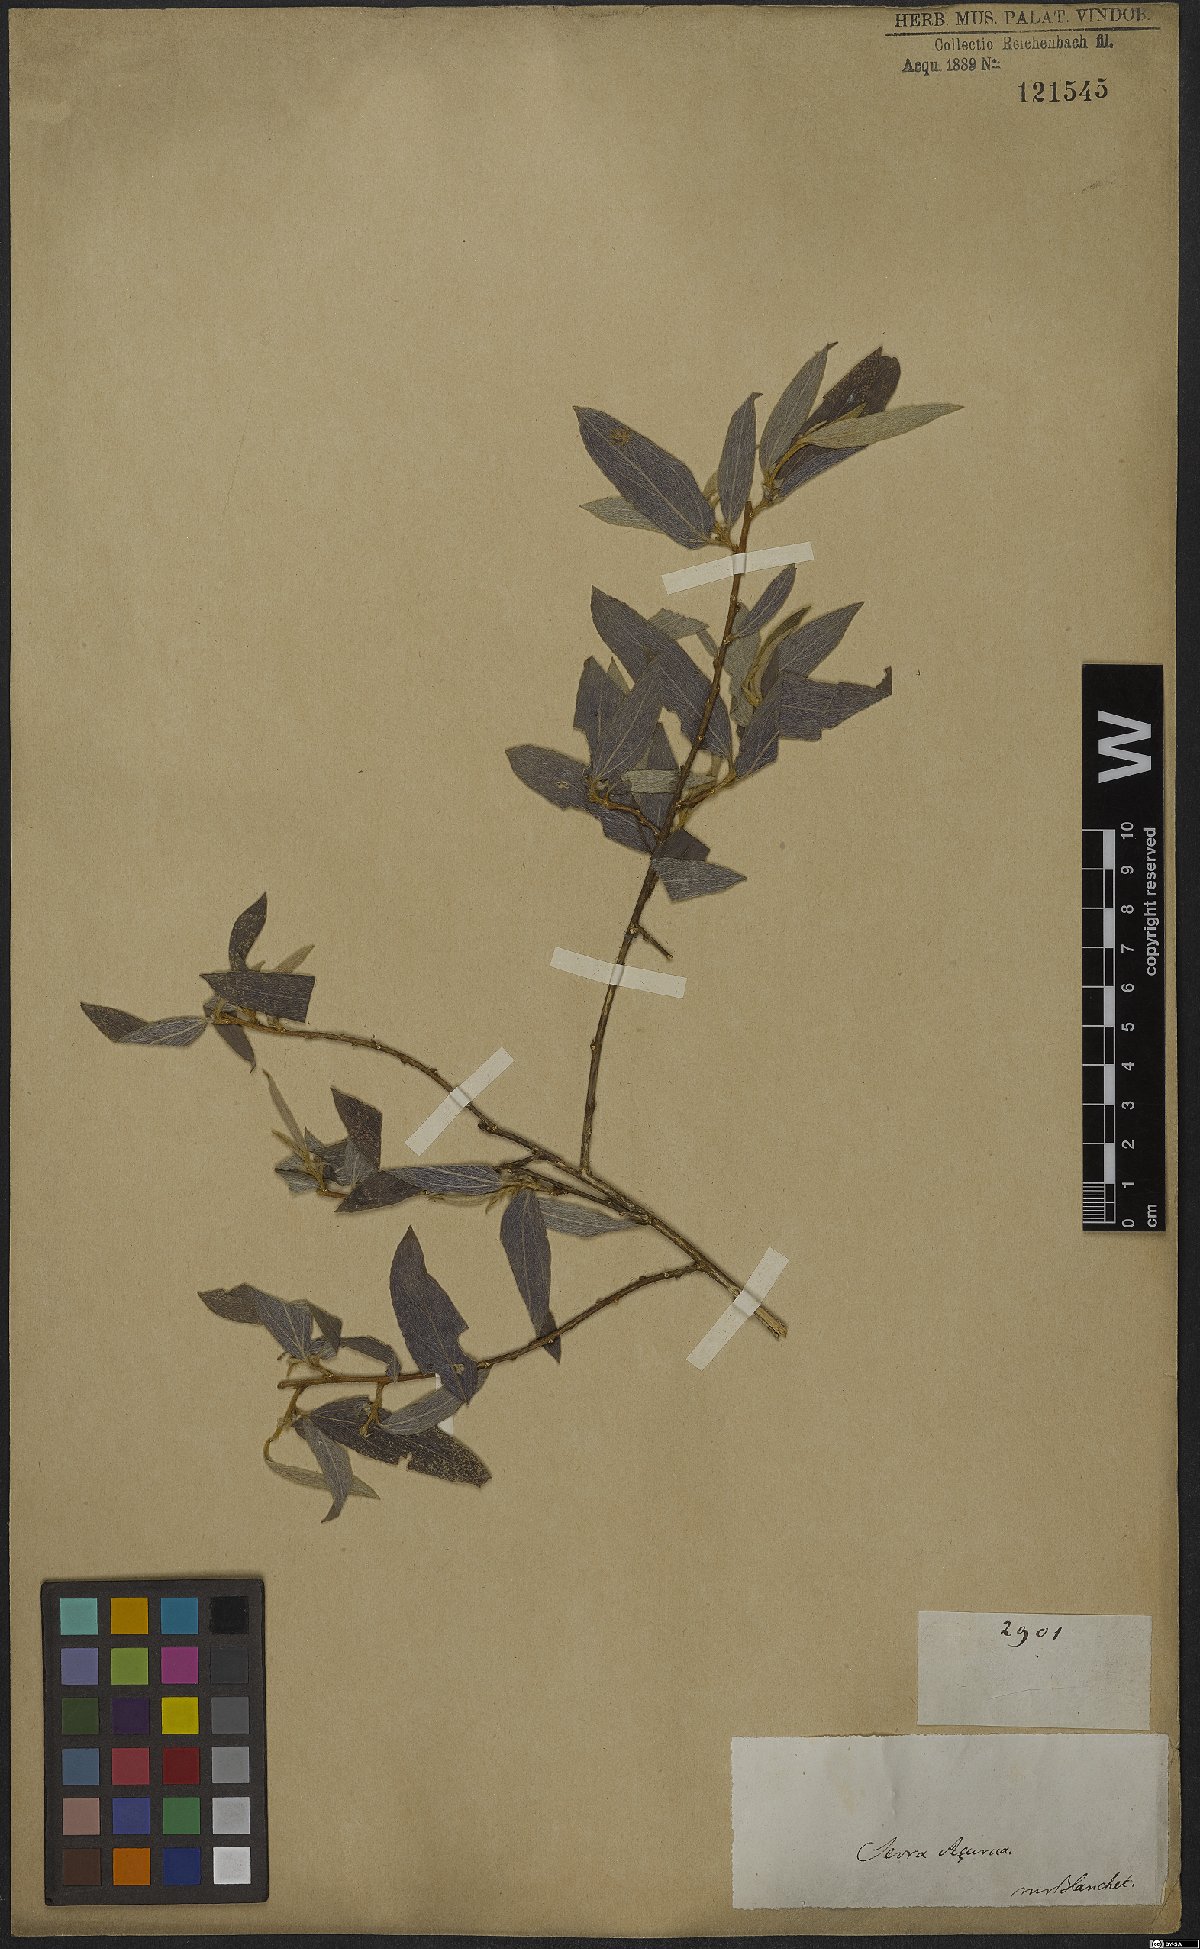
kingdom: Plantae
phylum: Tracheophyta
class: Magnoliopsida
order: Malpighiales
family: Euphorbiaceae
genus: Ditaxis
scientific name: Ditaxis simoniana
